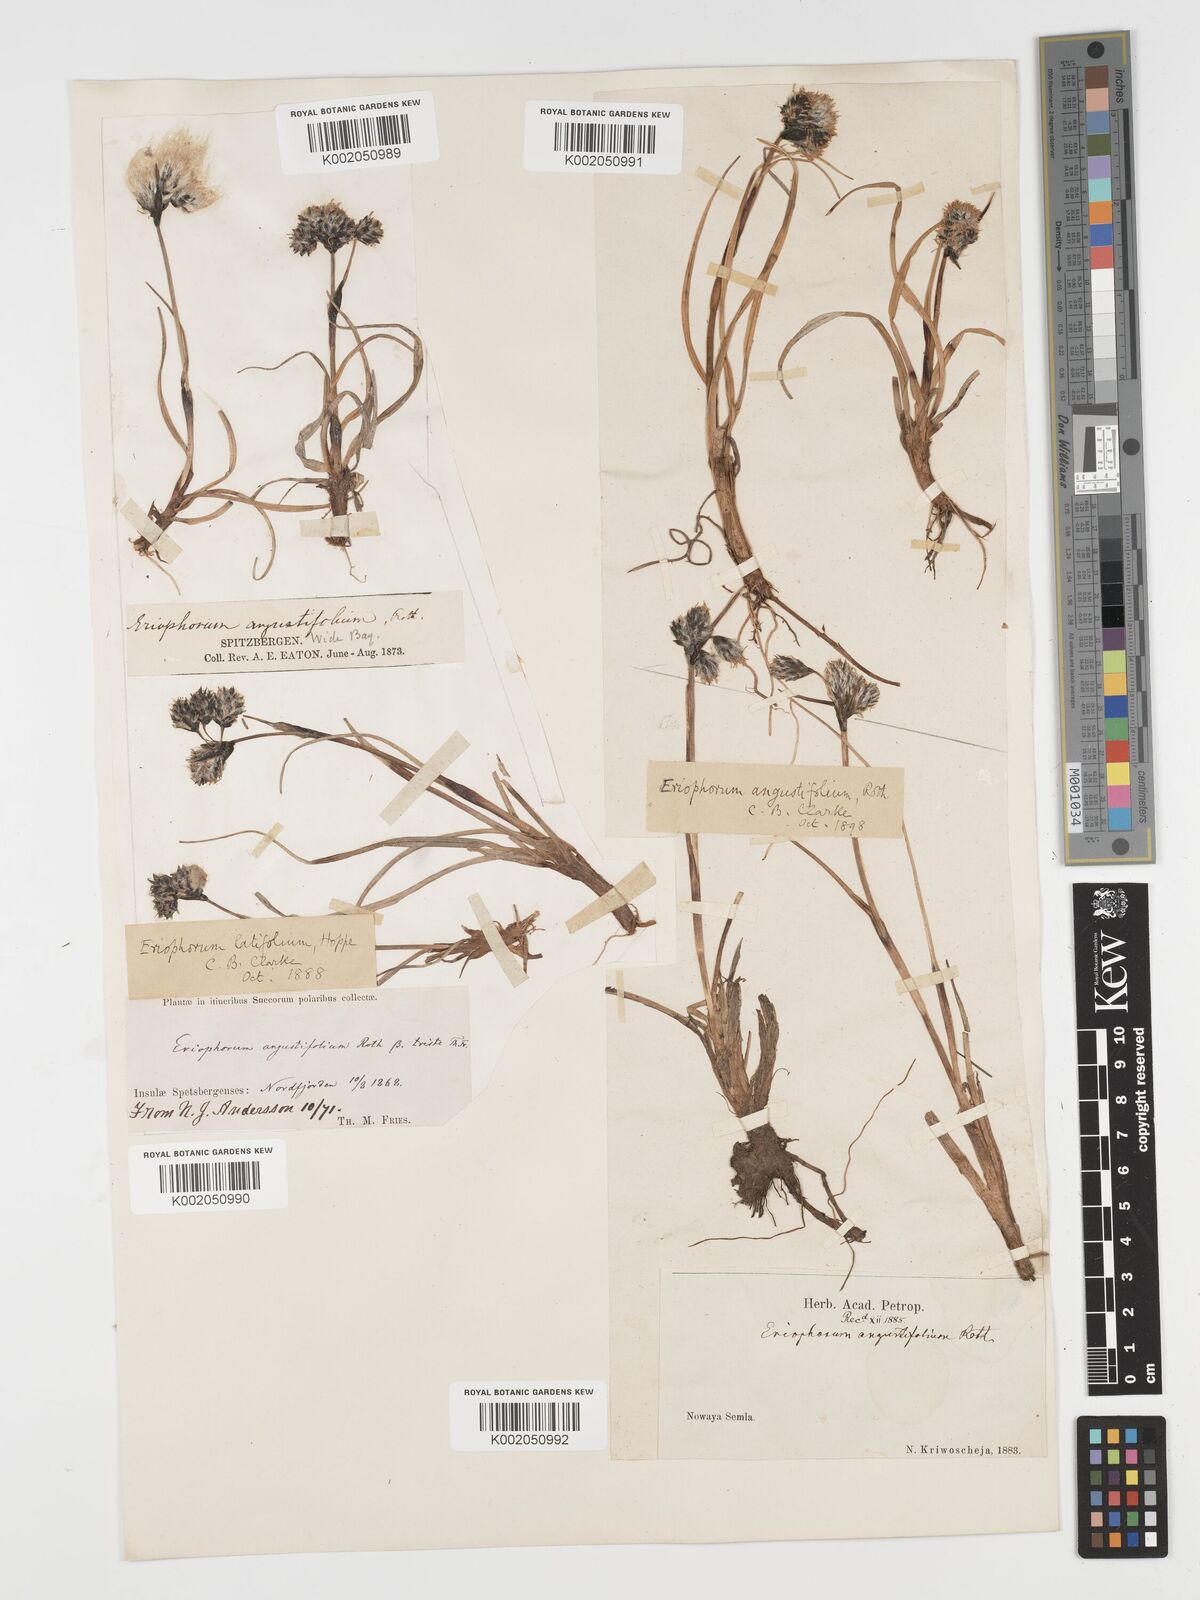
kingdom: Plantae
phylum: Tracheophyta
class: Liliopsida
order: Poales
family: Cyperaceae
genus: Eriophorum
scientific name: Eriophorum angustifolium
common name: Common cottongrass
